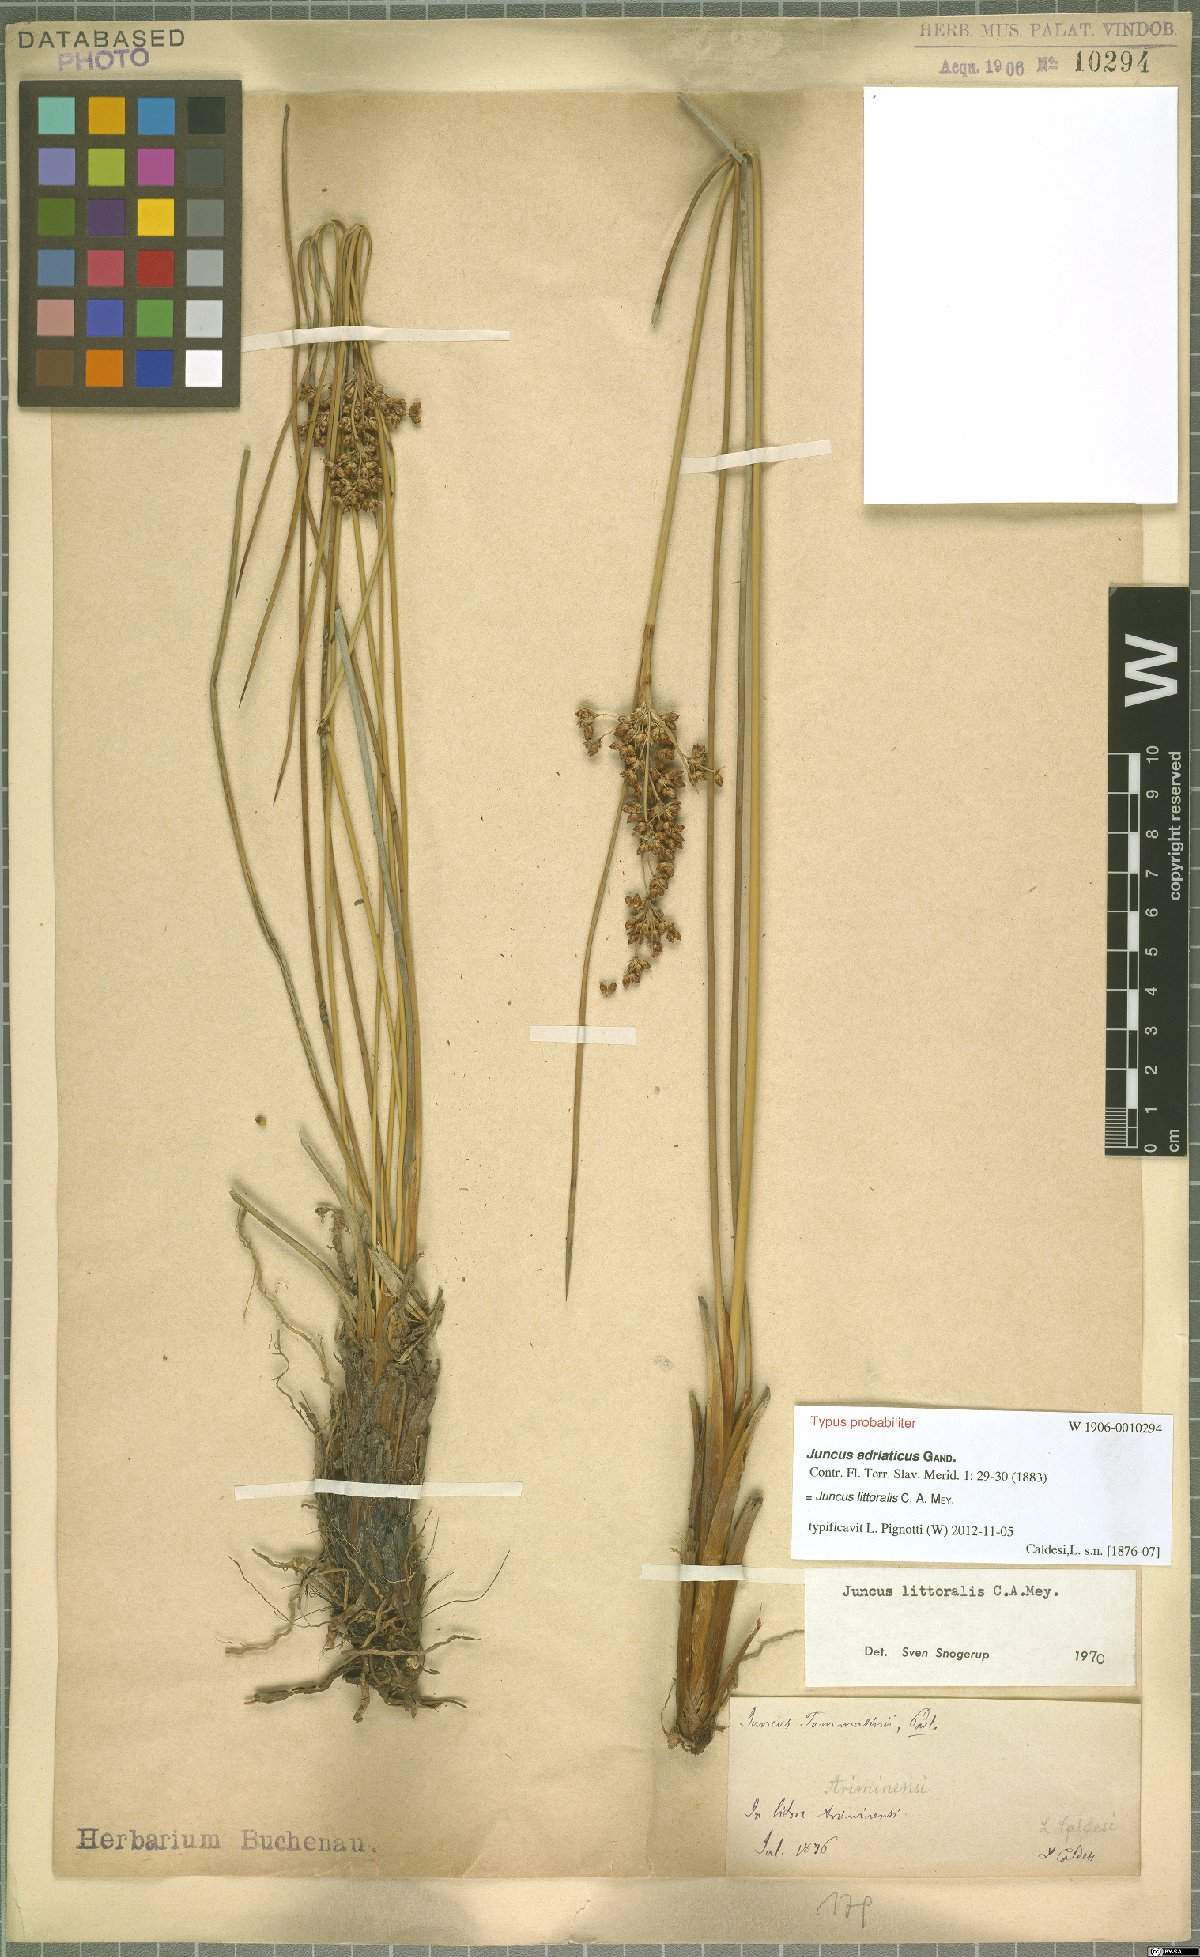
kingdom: Plantae
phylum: Tracheophyta
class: Liliopsida
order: Poales
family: Juncaceae
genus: Juncus
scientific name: Juncus littoralis
